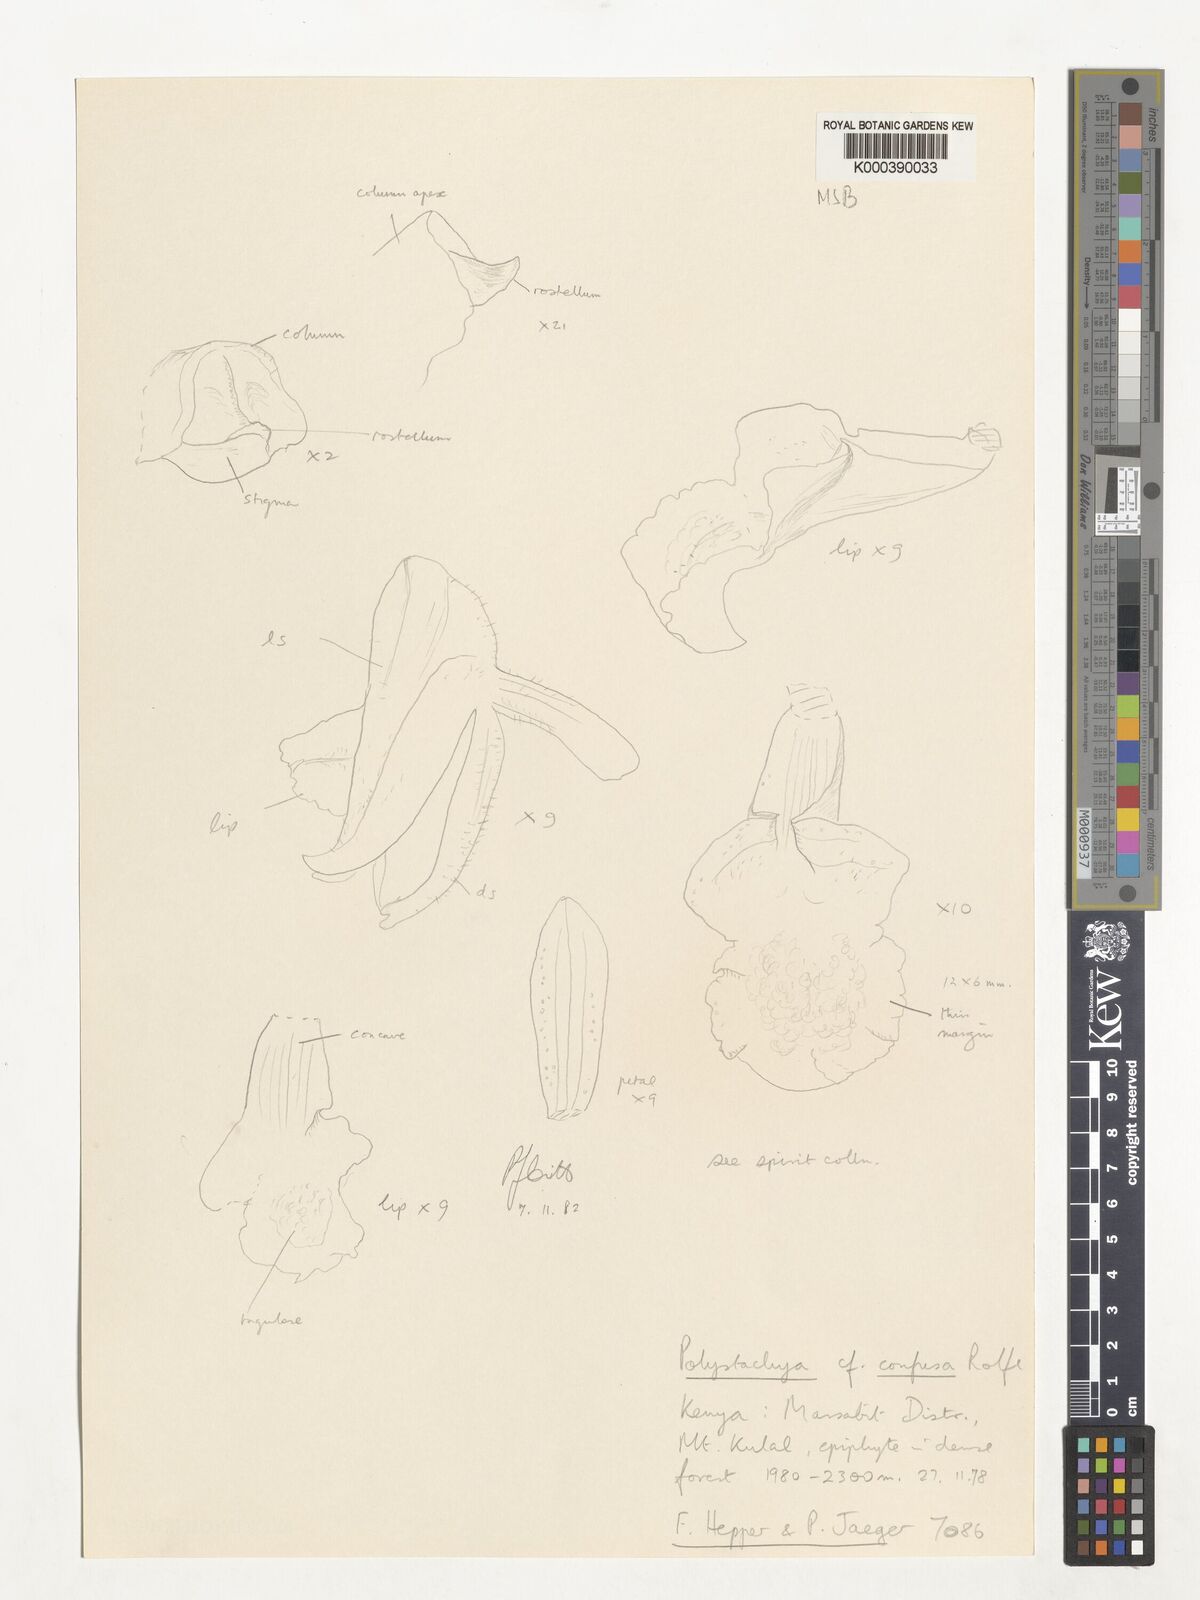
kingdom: Plantae
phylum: Tracheophyta
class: Liliopsida
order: Asparagales
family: Orchidaceae
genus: Polystachya
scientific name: Polystachya confusa
